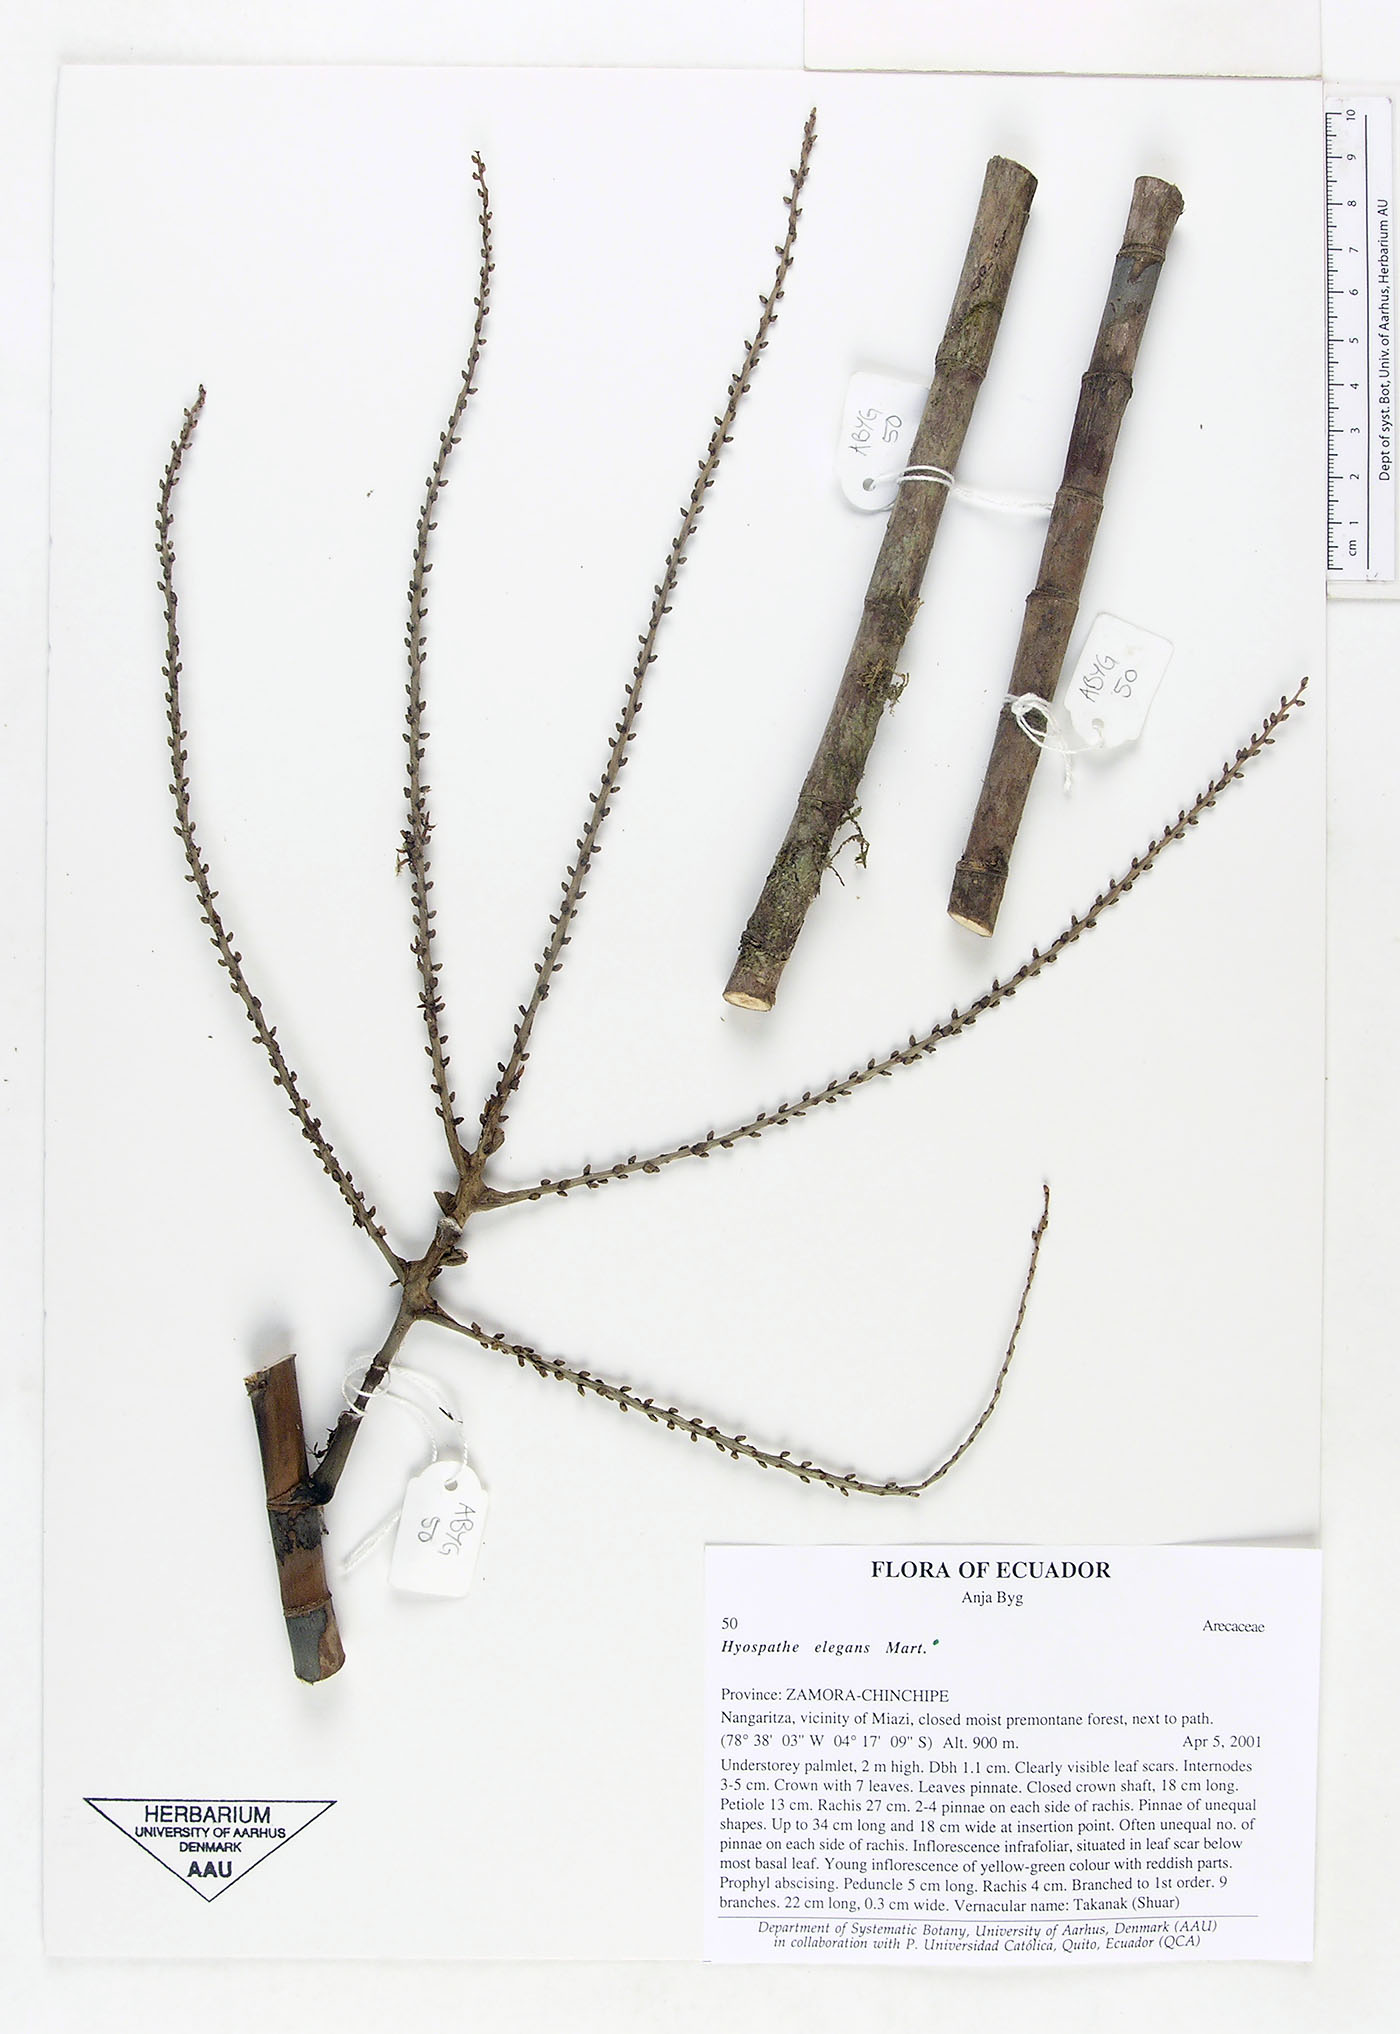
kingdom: Plantae
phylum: Tracheophyta
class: Liliopsida
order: Arecales
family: Arecaceae
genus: Hyospathe
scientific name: Hyospathe elegans
